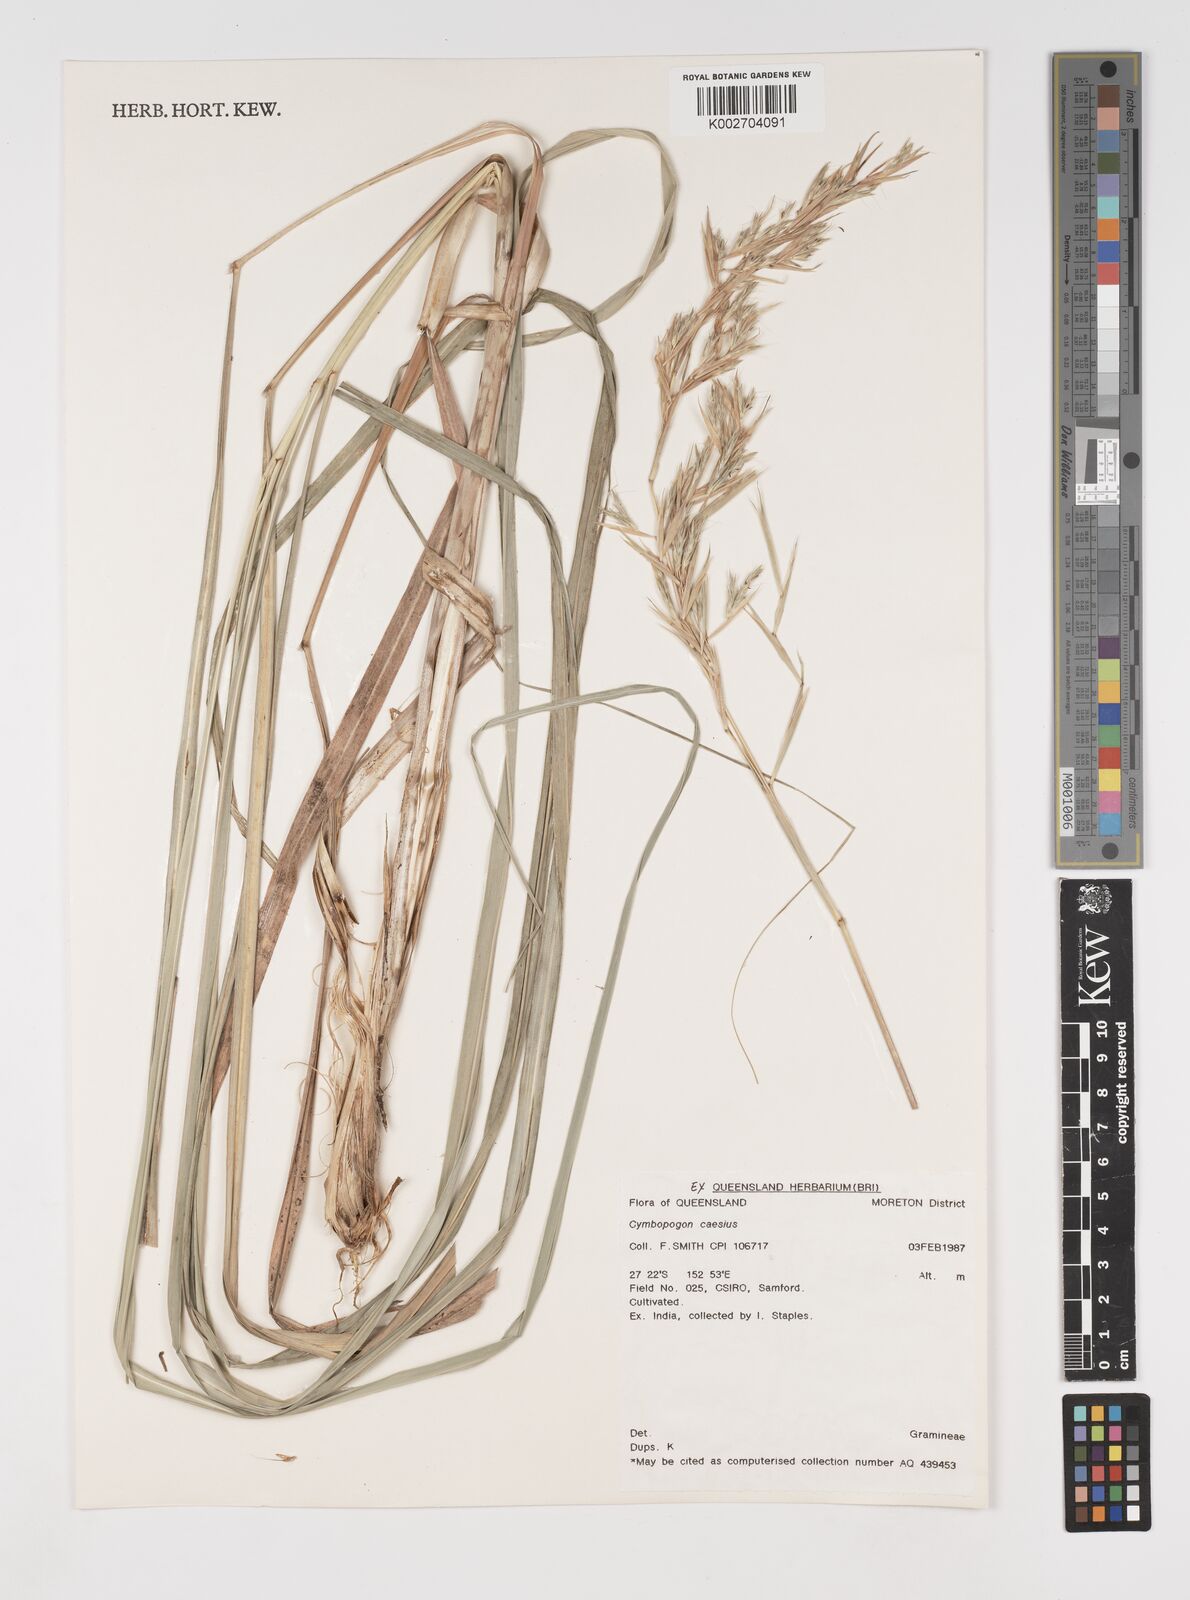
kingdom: Plantae
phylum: Tracheophyta
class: Liliopsida
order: Poales
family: Poaceae
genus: Cymbopogon
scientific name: Cymbopogon caesius
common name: Kachi grass
